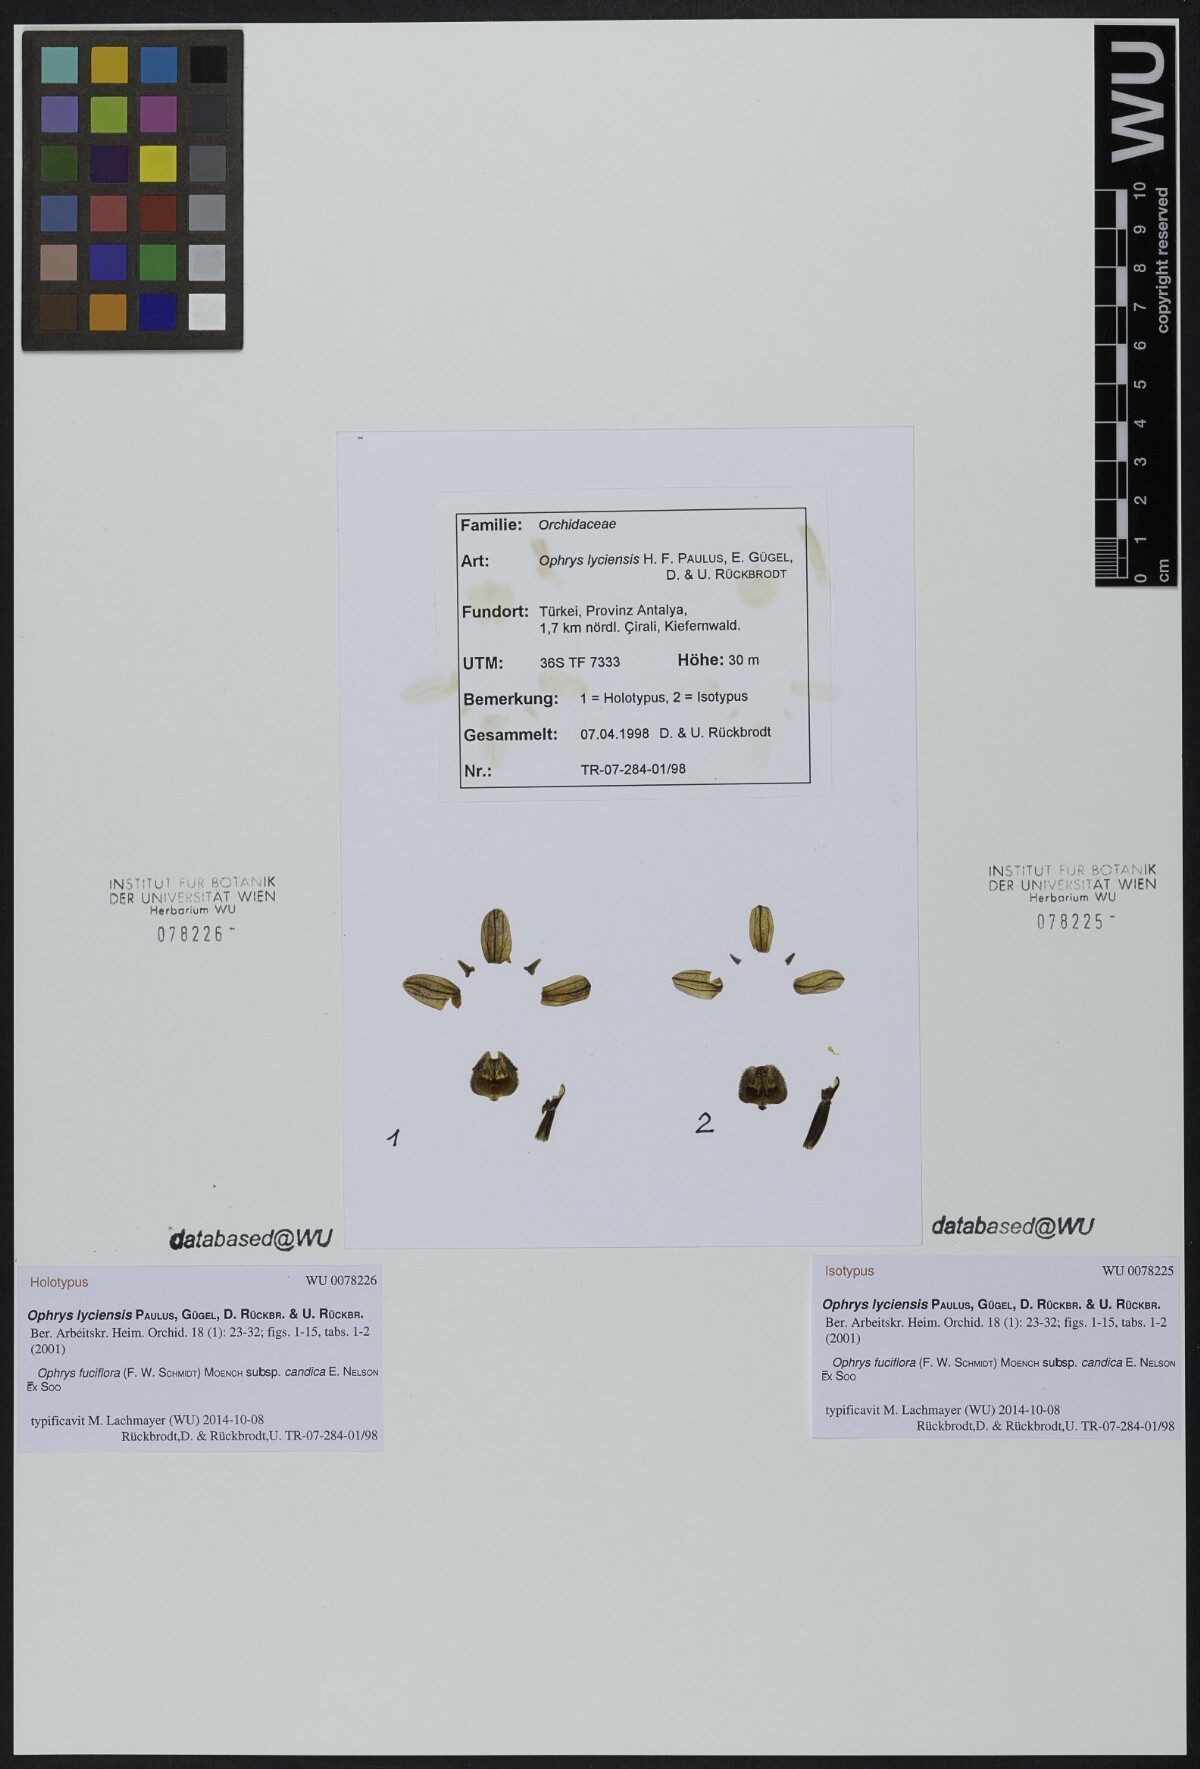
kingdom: Plantae
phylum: Tracheophyta
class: Liliopsida
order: Asparagales
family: Orchidaceae
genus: Ophrys
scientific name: Ophrys holosericea
